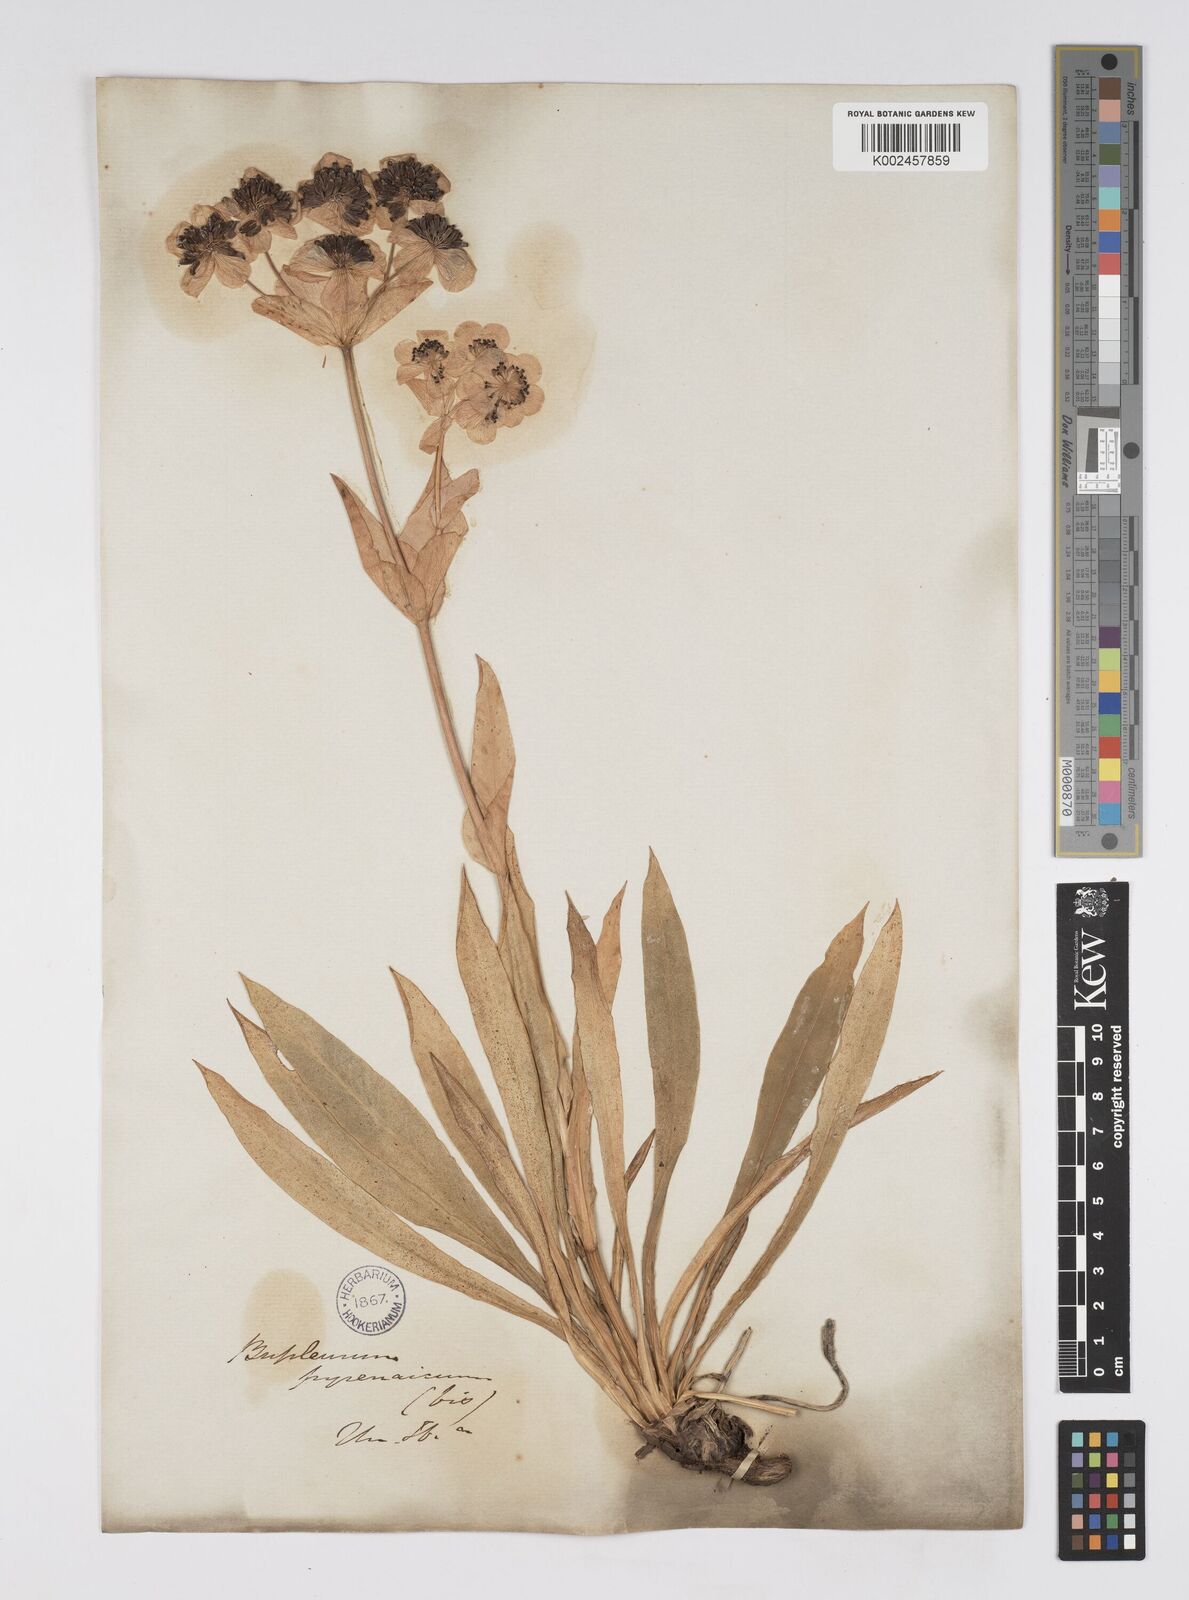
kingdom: Plantae
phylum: Tracheophyta
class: Magnoliopsida
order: Apiales
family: Apiaceae
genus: Bupleurum
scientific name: Bupleurum angulosum
